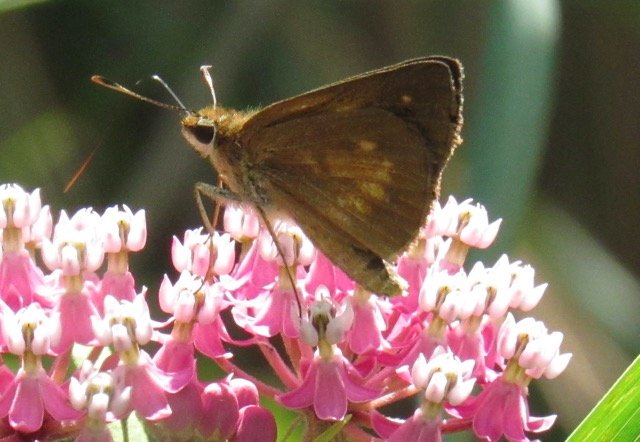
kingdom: Animalia
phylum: Arthropoda
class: Insecta
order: Lepidoptera
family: Hesperiidae
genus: Poanes
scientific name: Poanes viator
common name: Broad-winged Skipper
